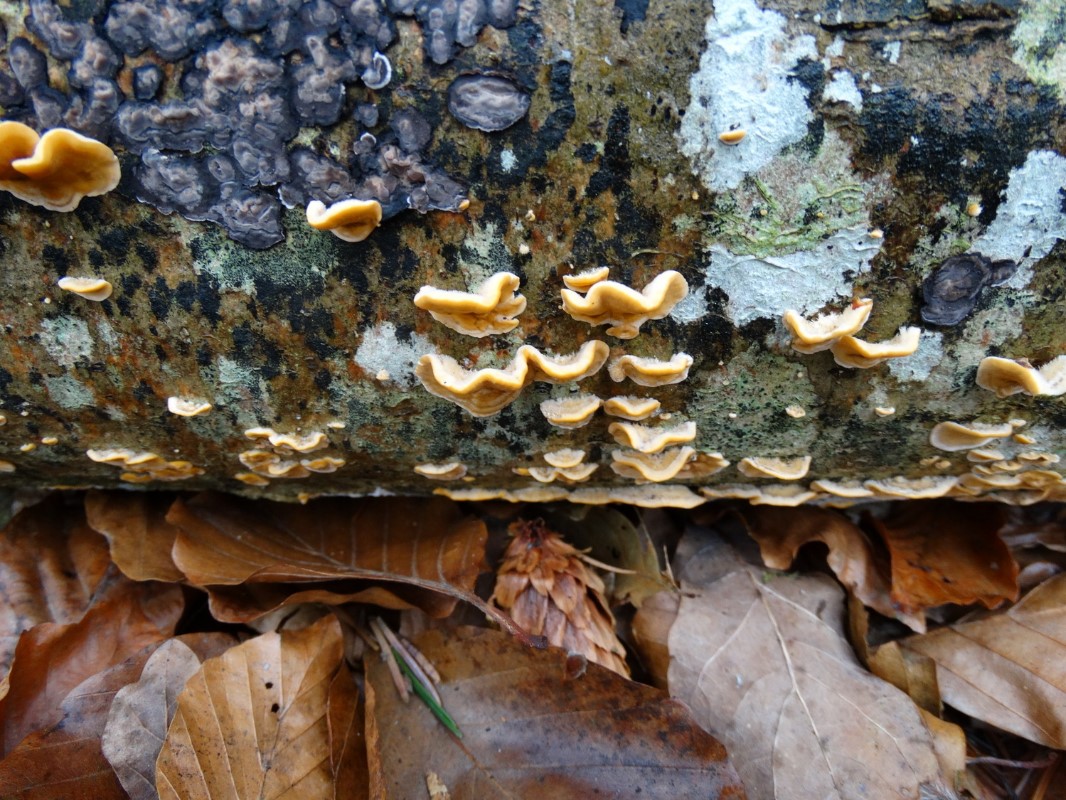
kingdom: Fungi
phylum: Basidiomycota
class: Agaricomycetes
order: Russulales
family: Stereaceae
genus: Stereum
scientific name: Stereum hirsutum
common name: håret lædersvamp
